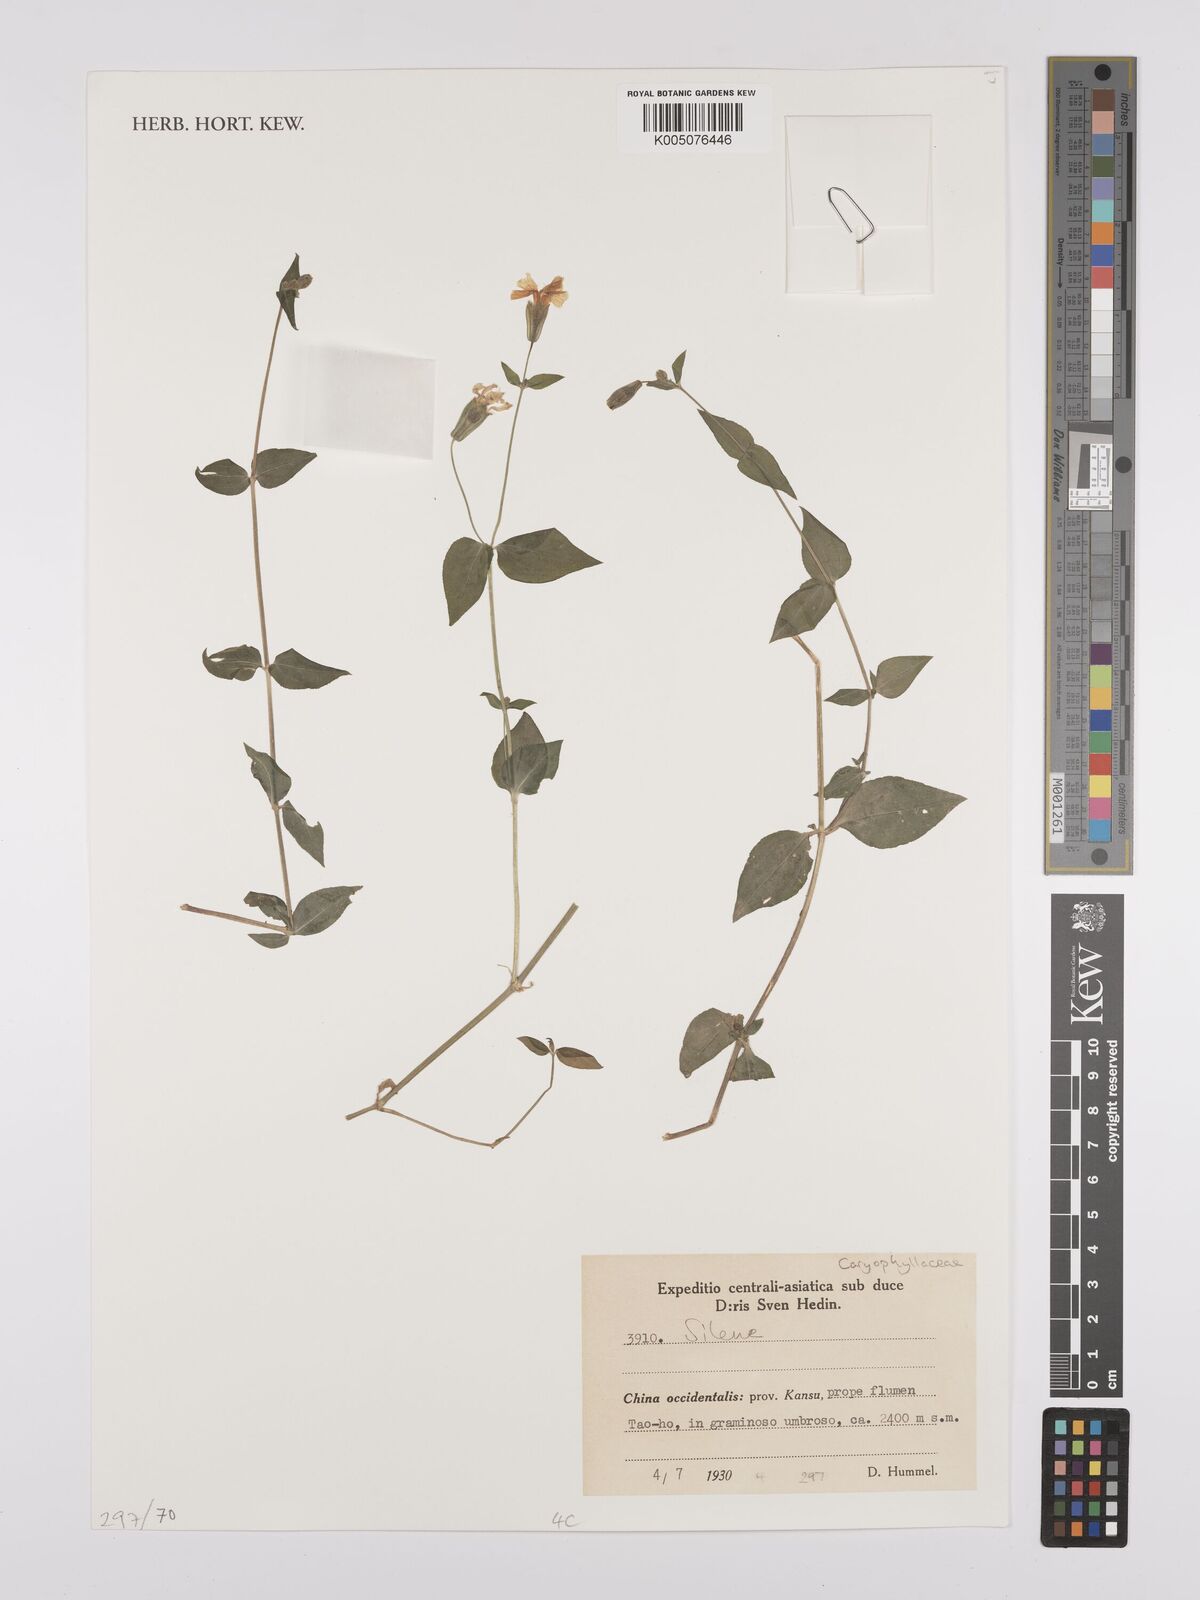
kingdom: Plantae
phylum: Tracheophyta
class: Magnoliopsida
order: Caryophyllales
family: Caryophyllaceae
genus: Silene
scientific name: Silene
